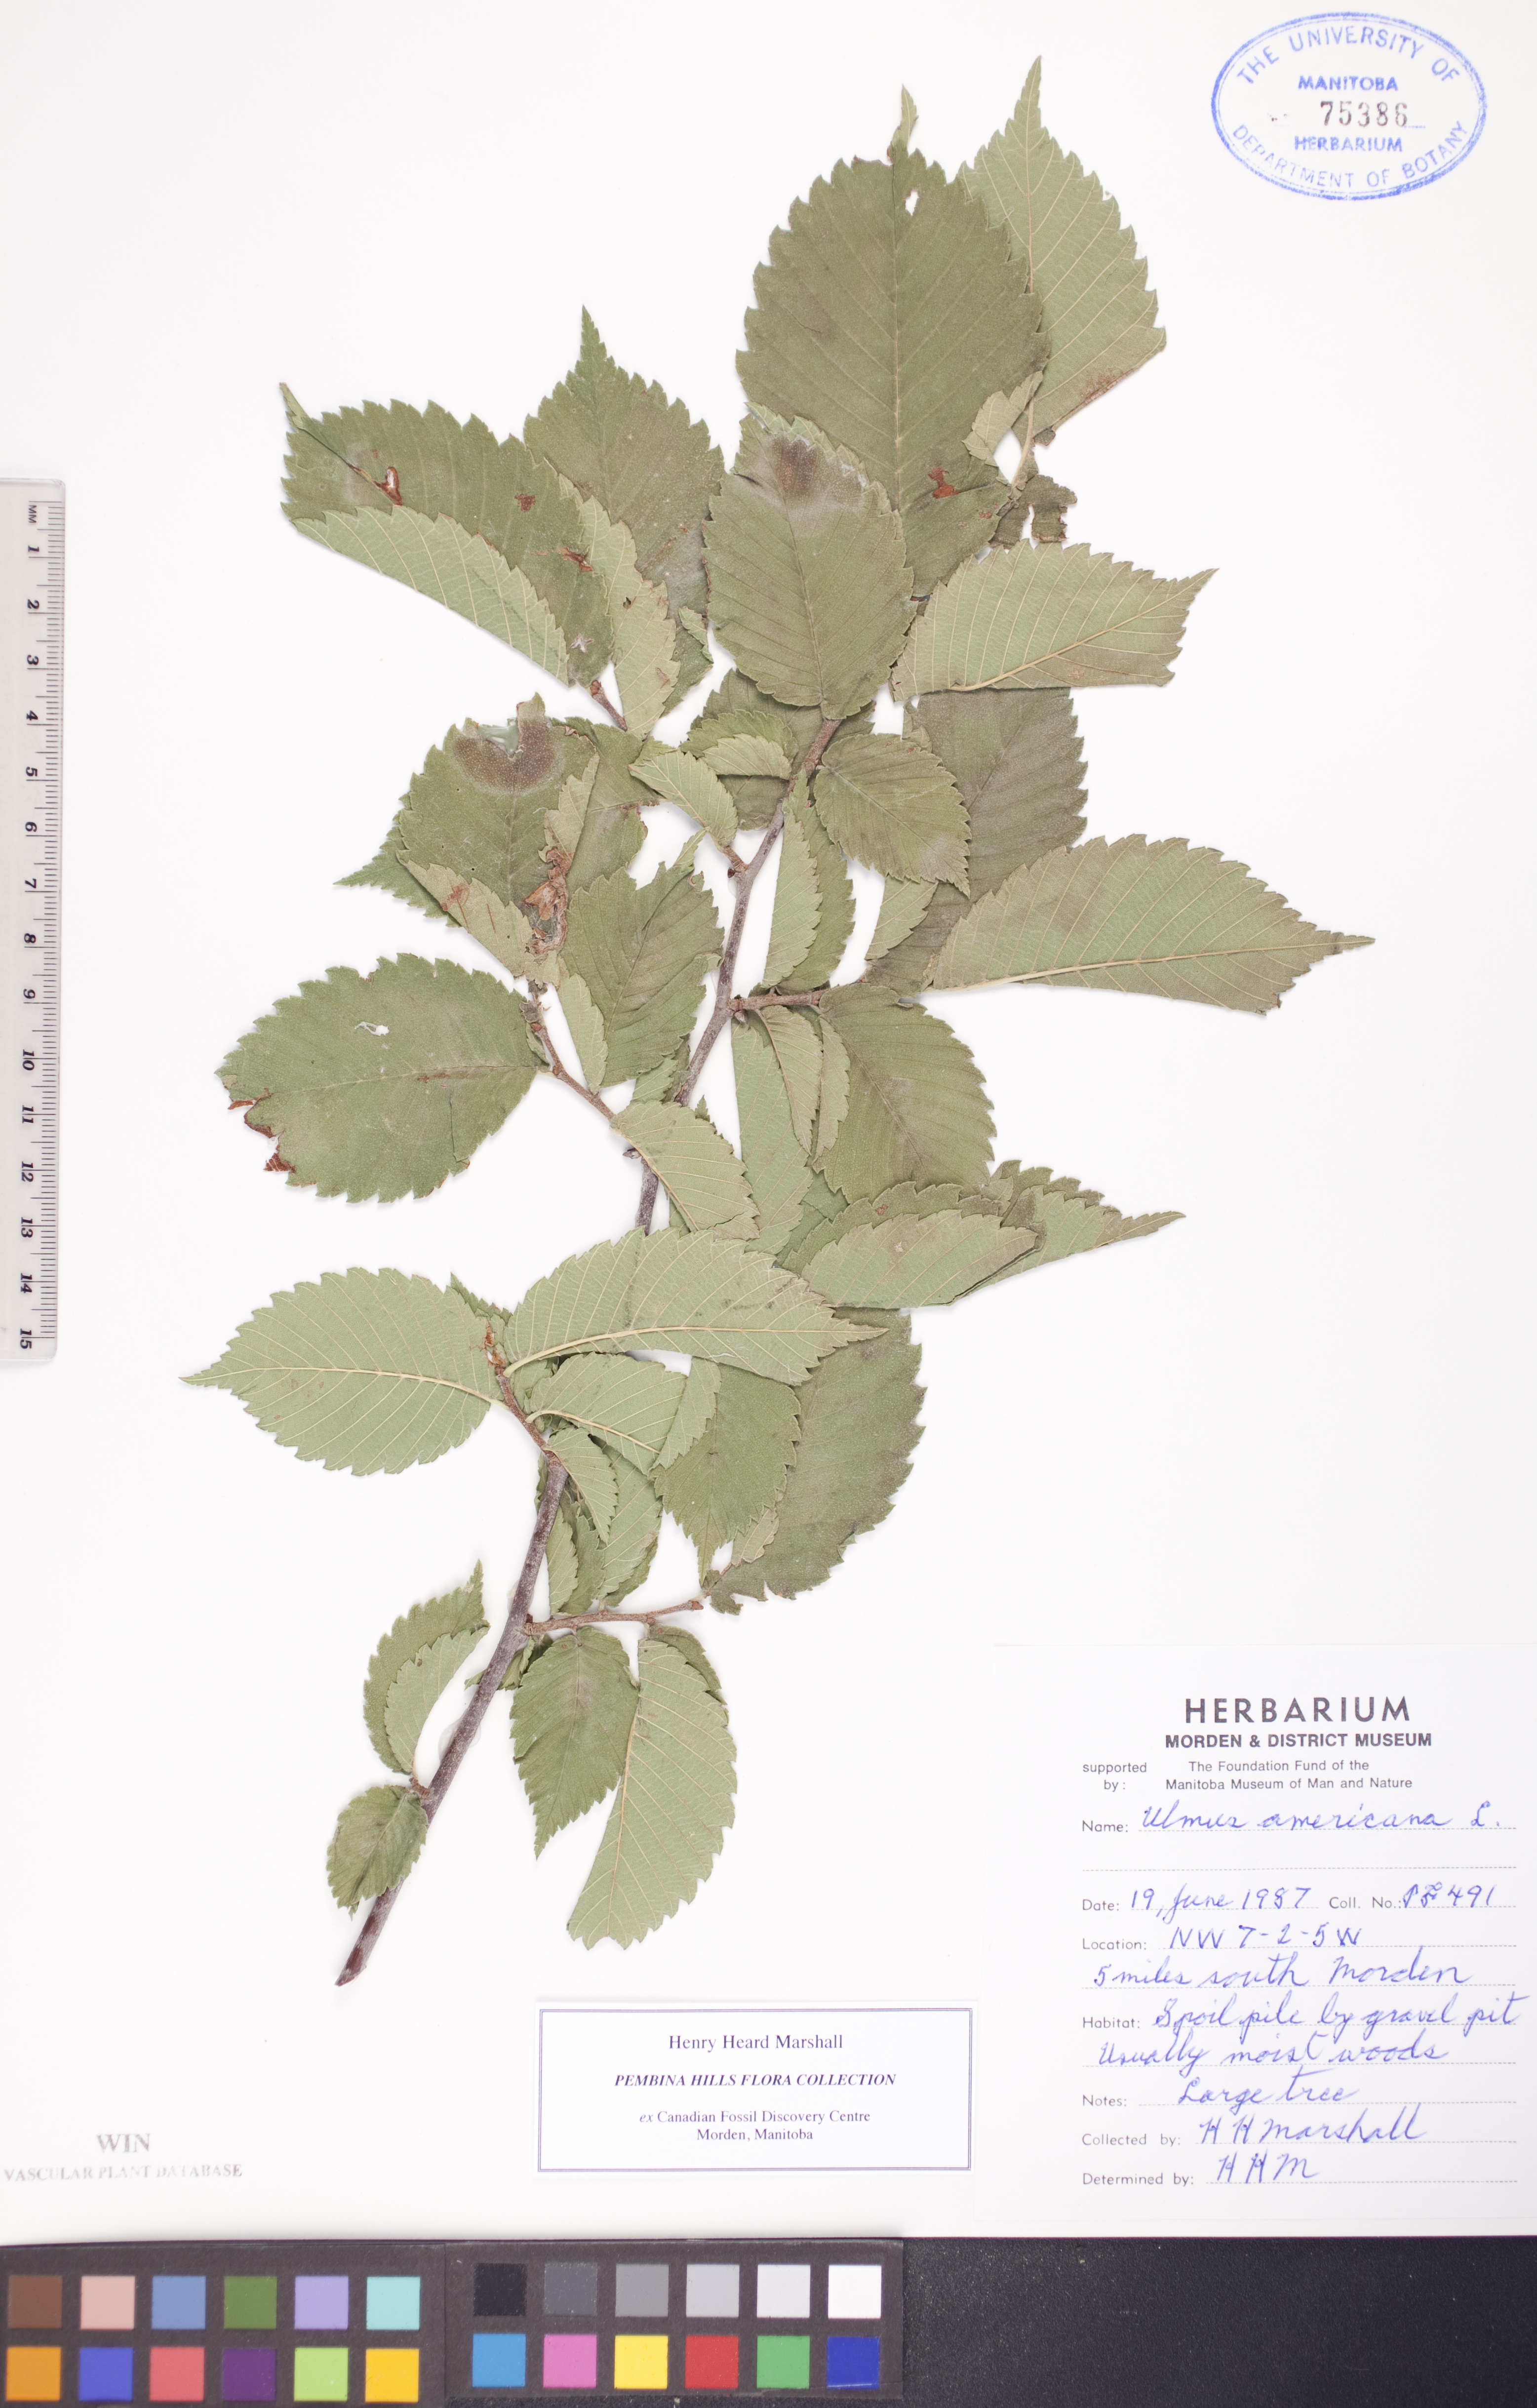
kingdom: Plantae
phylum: Tracheophyta
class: Magnoliopsida
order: Rosales
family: Ulmaceae
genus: Ulmus
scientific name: Ulmus americana
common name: American elm
